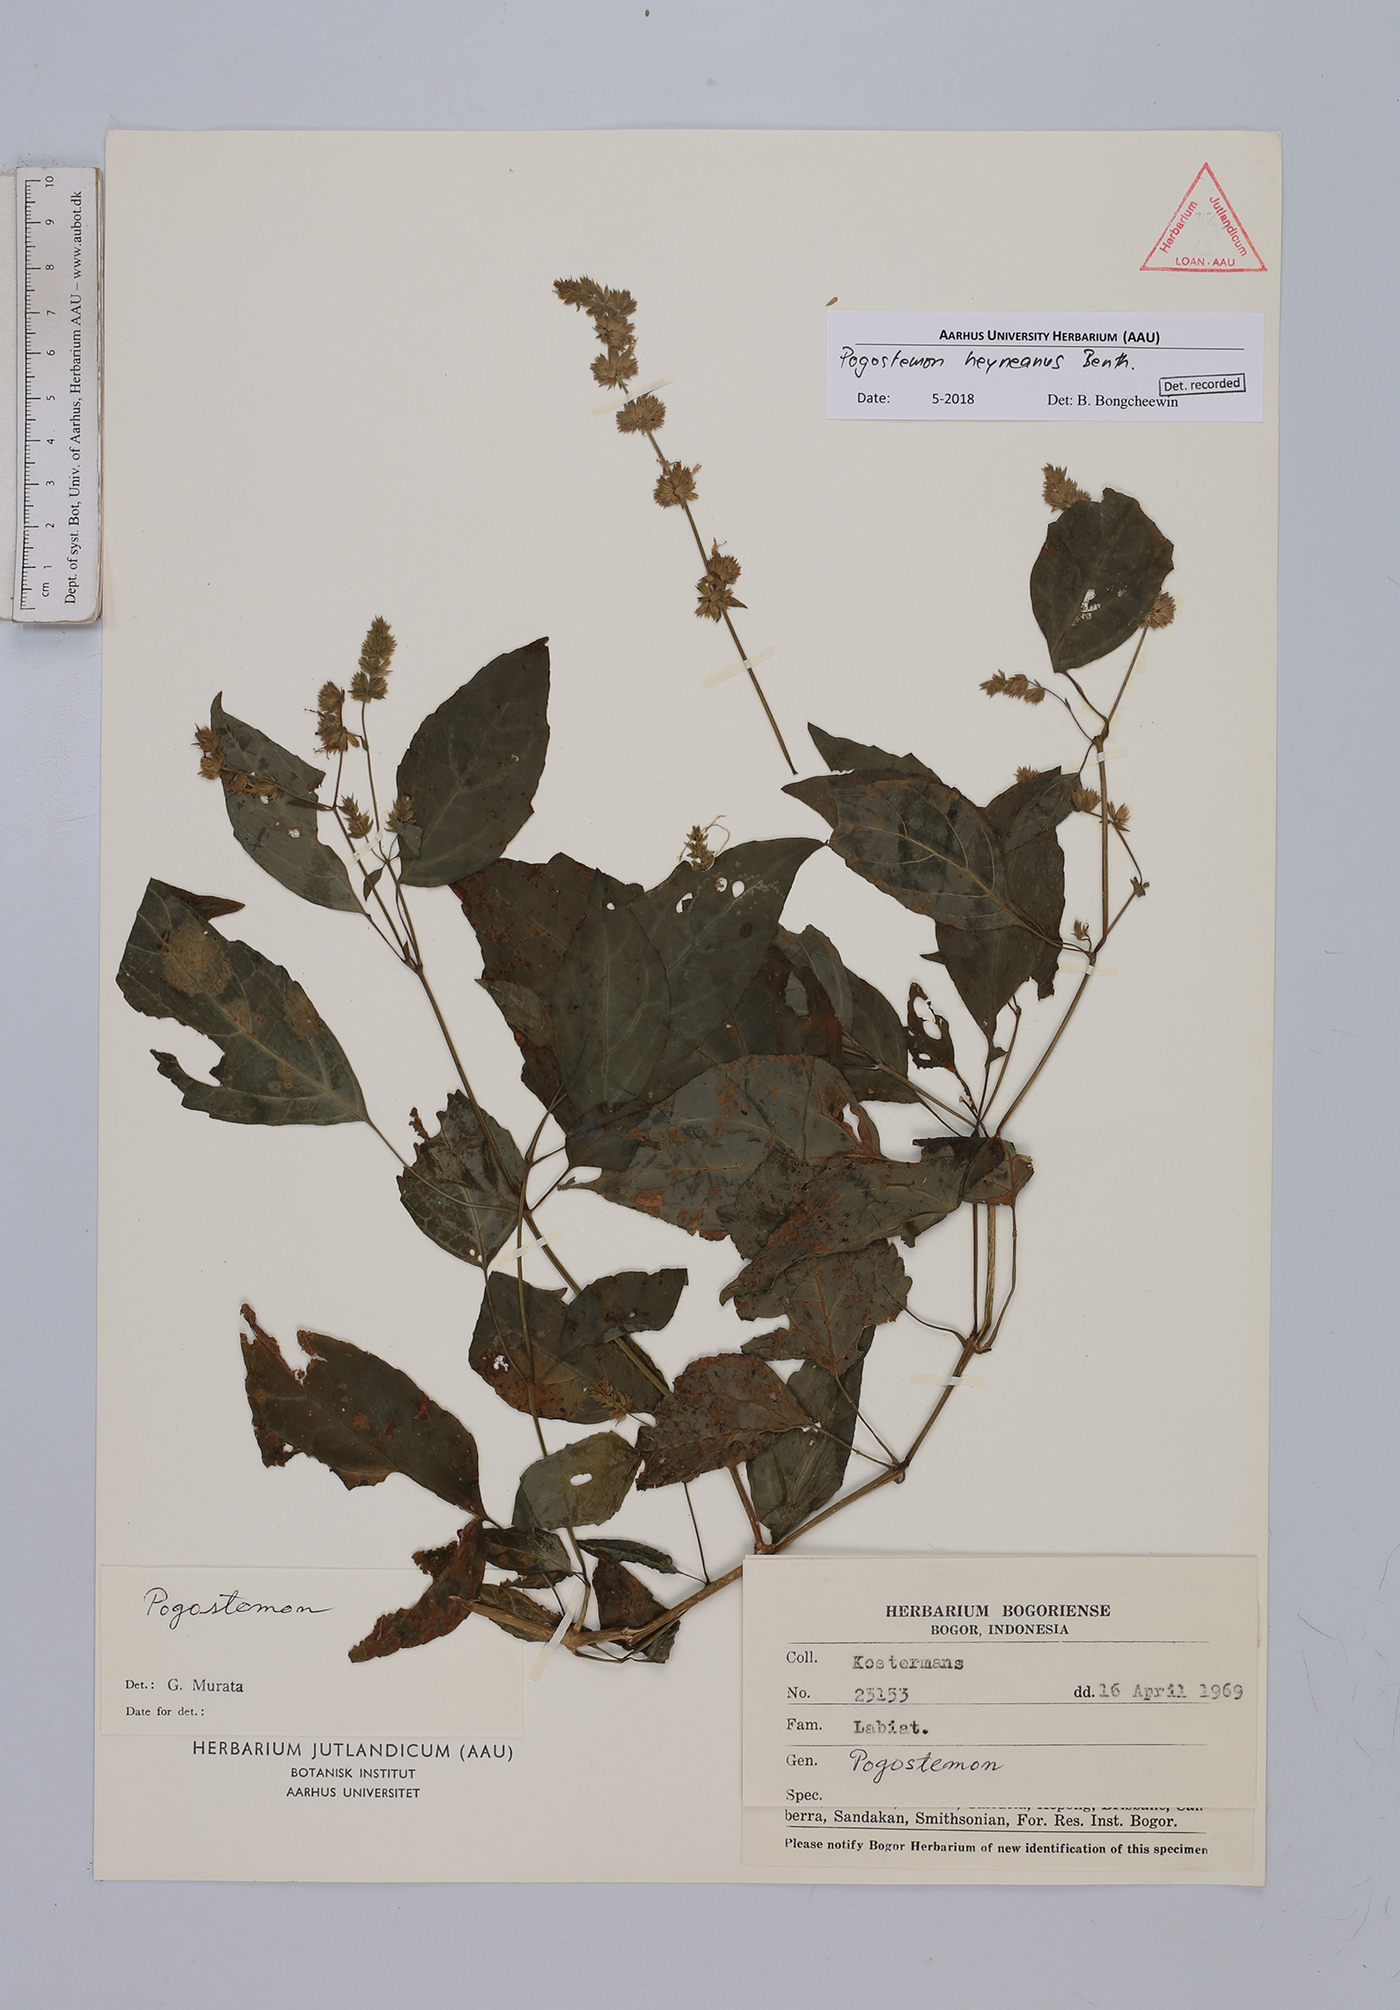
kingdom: Plantae
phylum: Tracheophyta
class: Magnoliopsida
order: Lamiales
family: Lamiaceae
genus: Pogostemon
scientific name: Pogostemon heyneanus
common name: Indian patchouli
